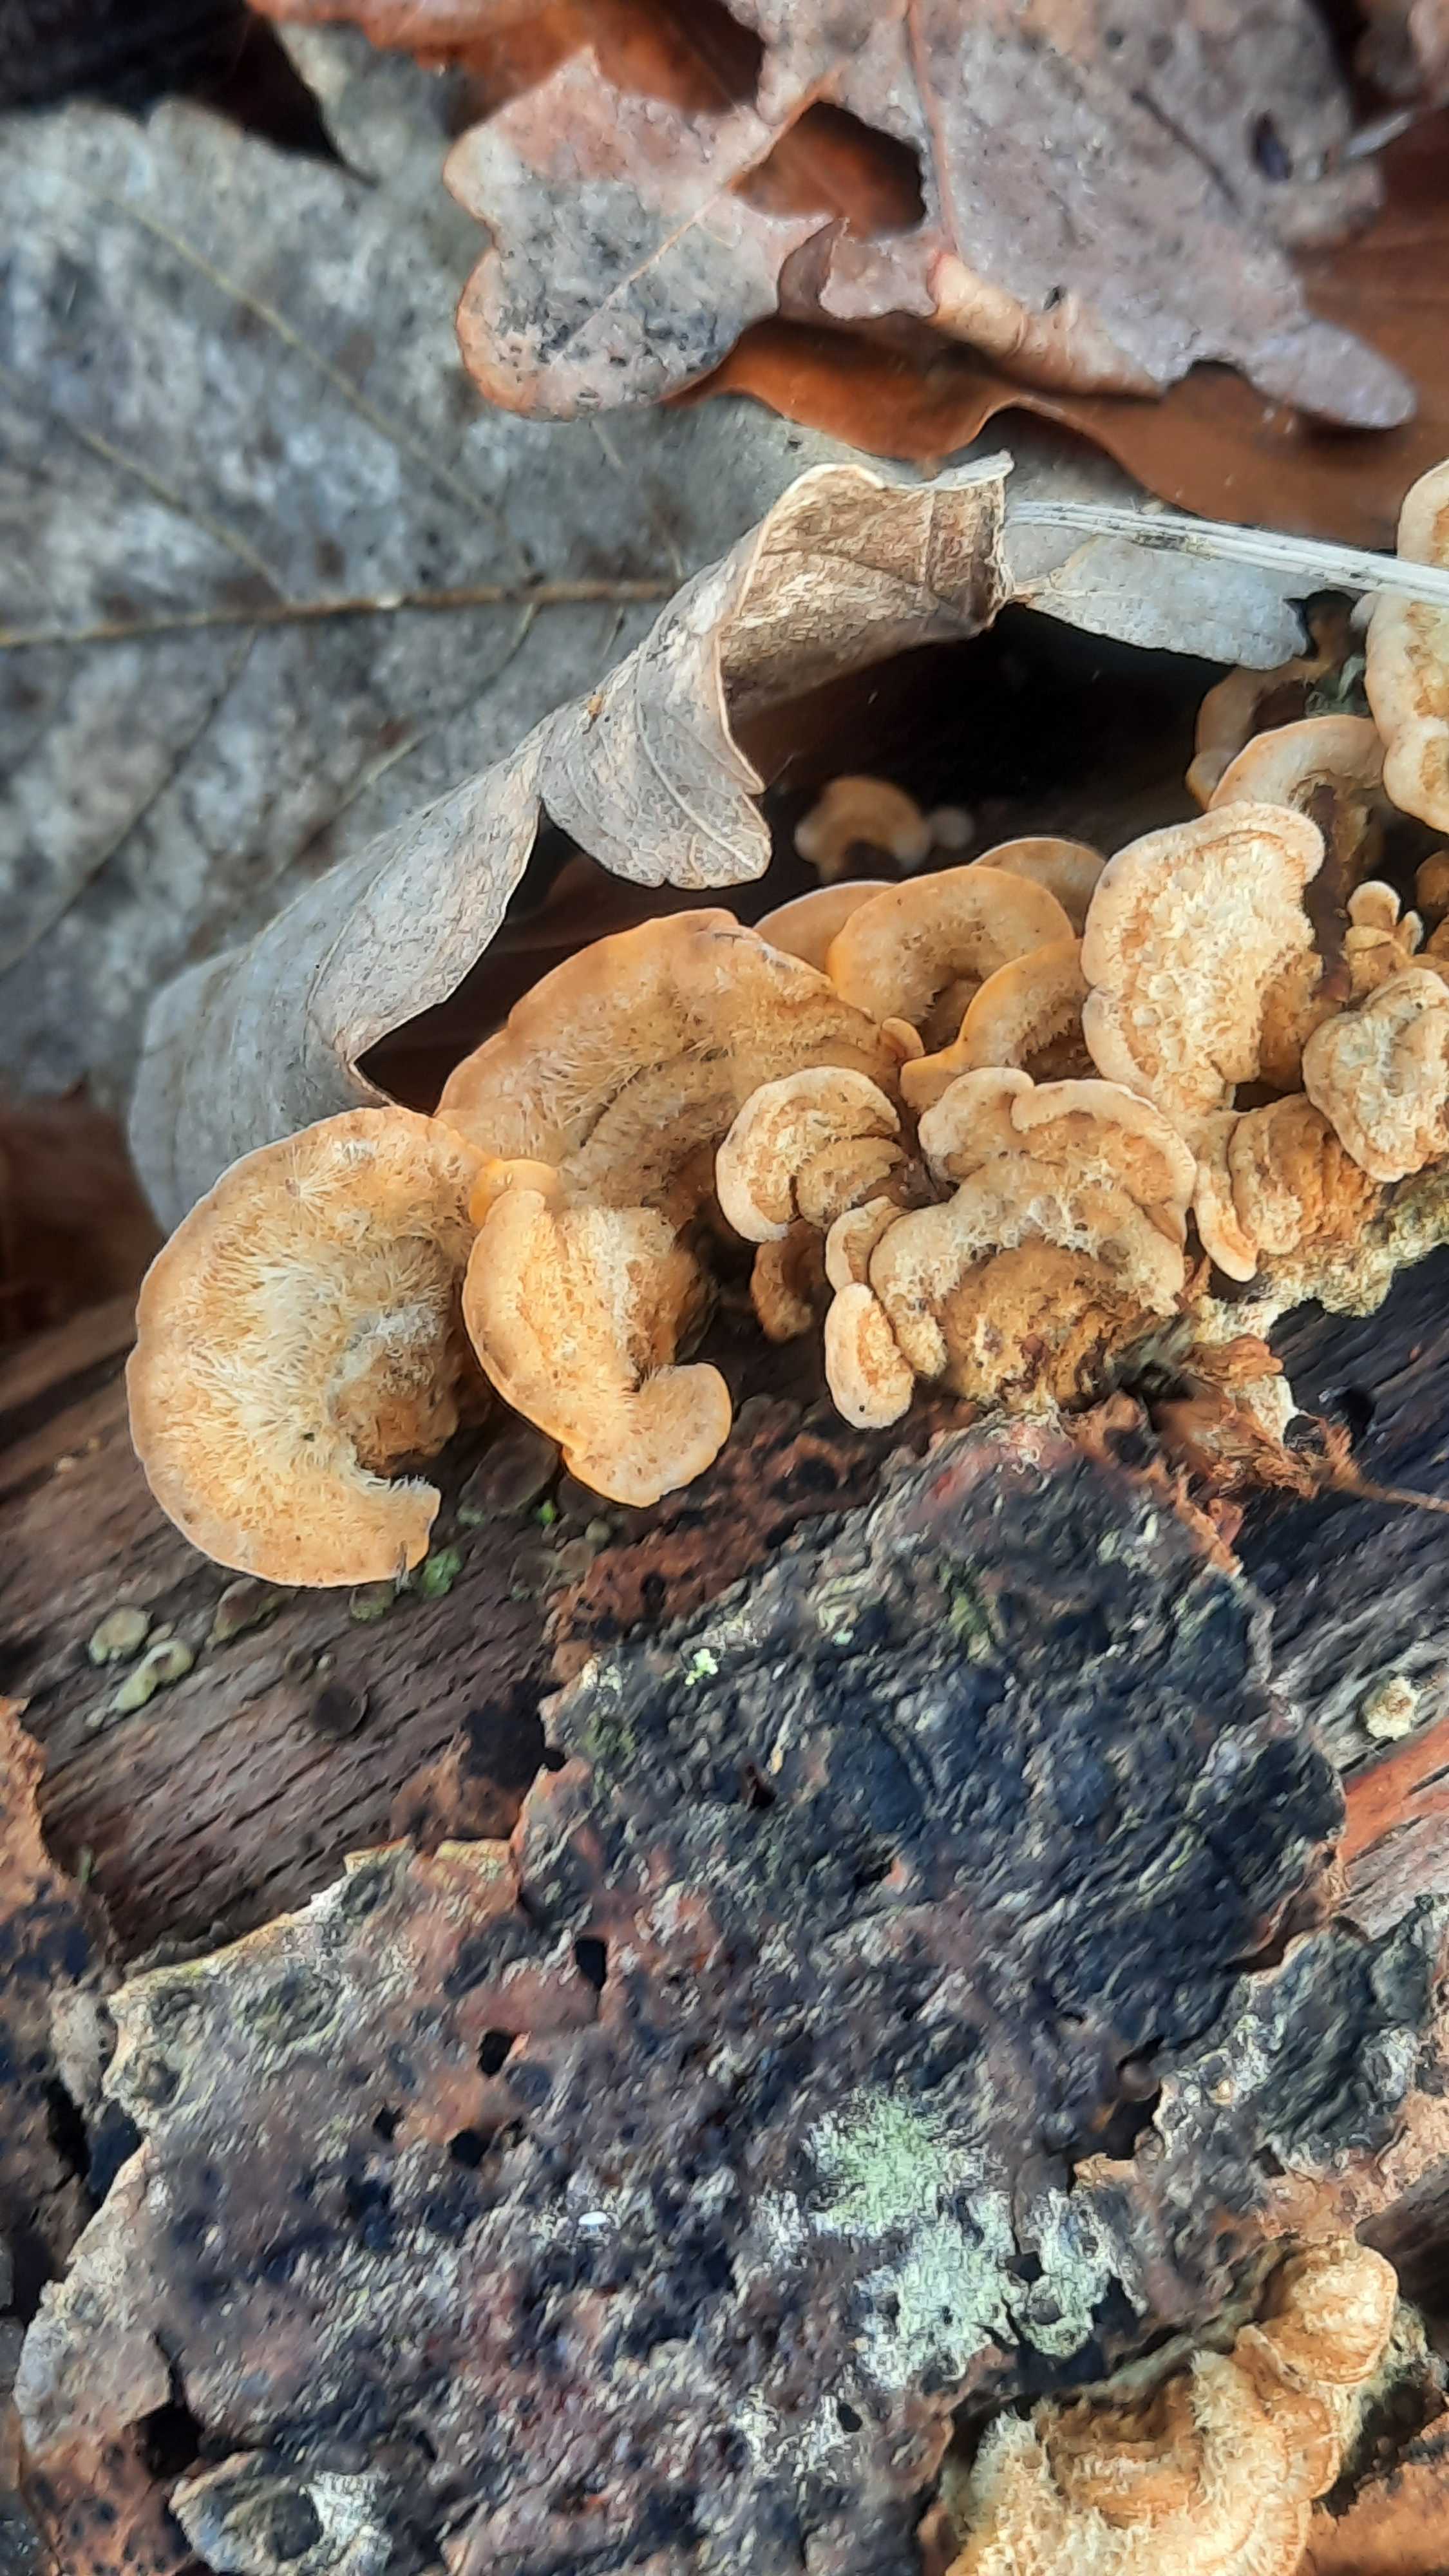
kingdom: Fungi
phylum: Basidiomycota
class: Agaricomycetes
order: Russulales
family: Stereaceae
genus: Stereum
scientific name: Stereum hirsutum
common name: håret lædersvamp
